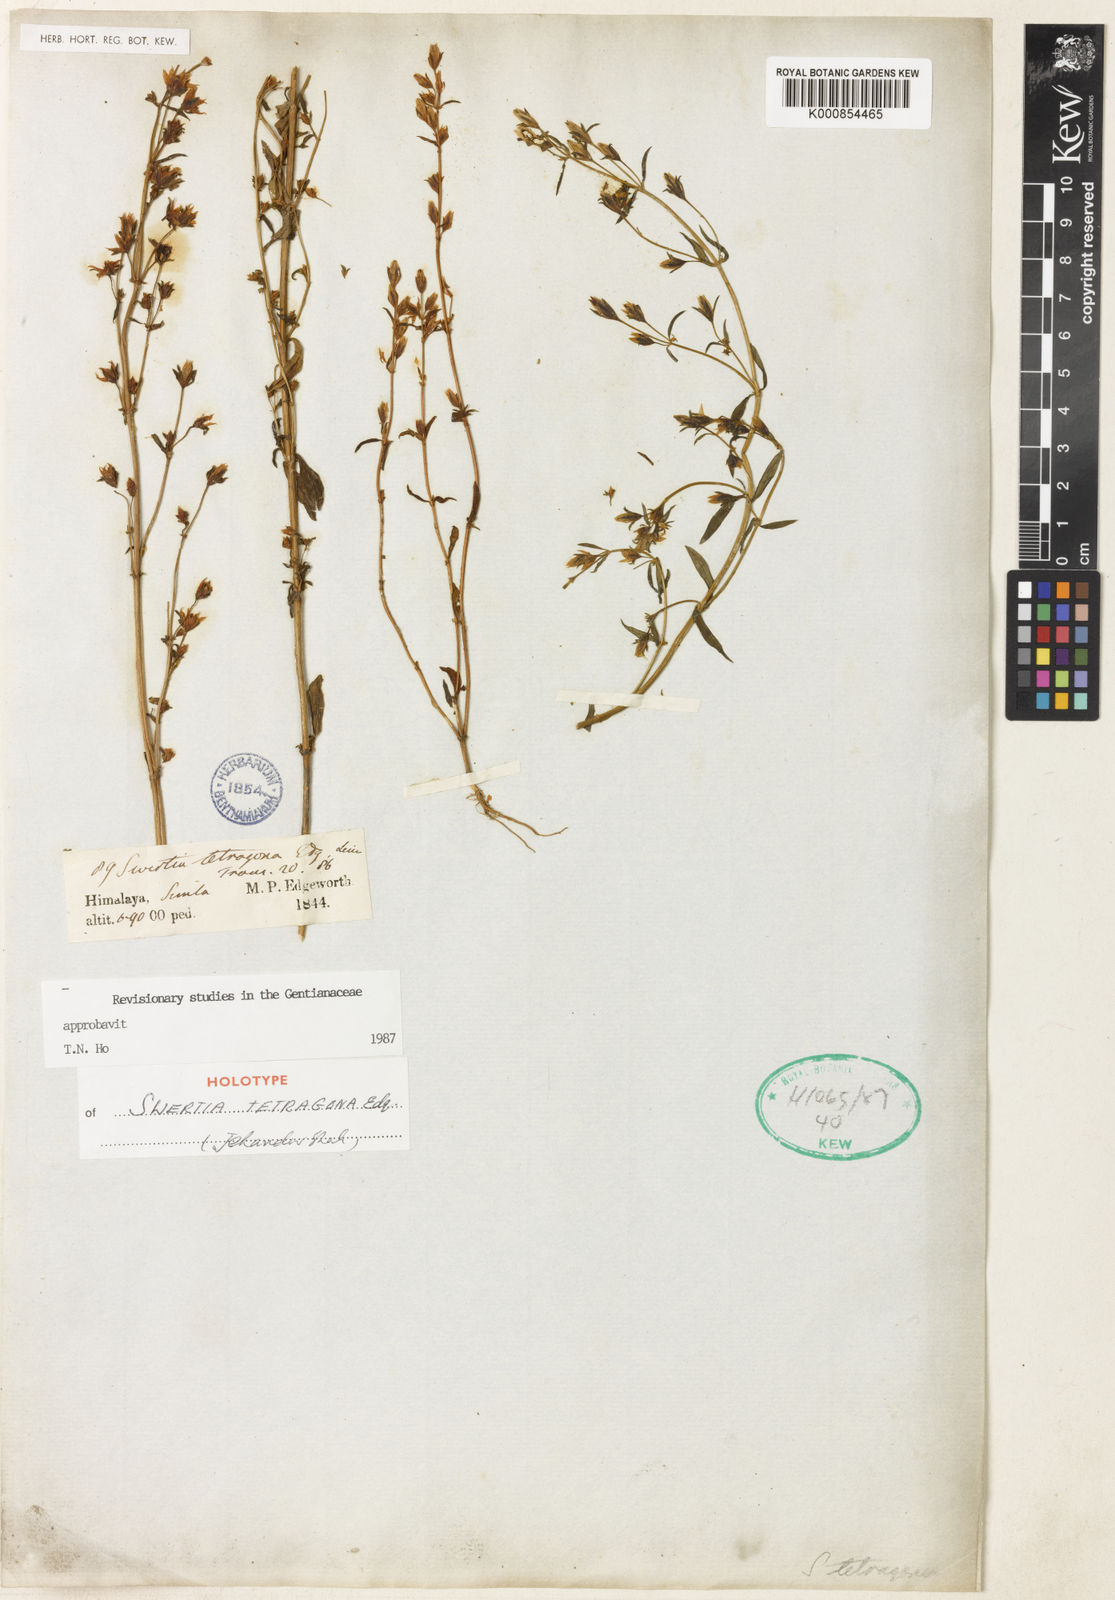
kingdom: Plantae
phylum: Tracheophyta
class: Magnoliopsida
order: Gentianales
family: Gentianaceae
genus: Swertia
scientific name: Swertia tetragona
